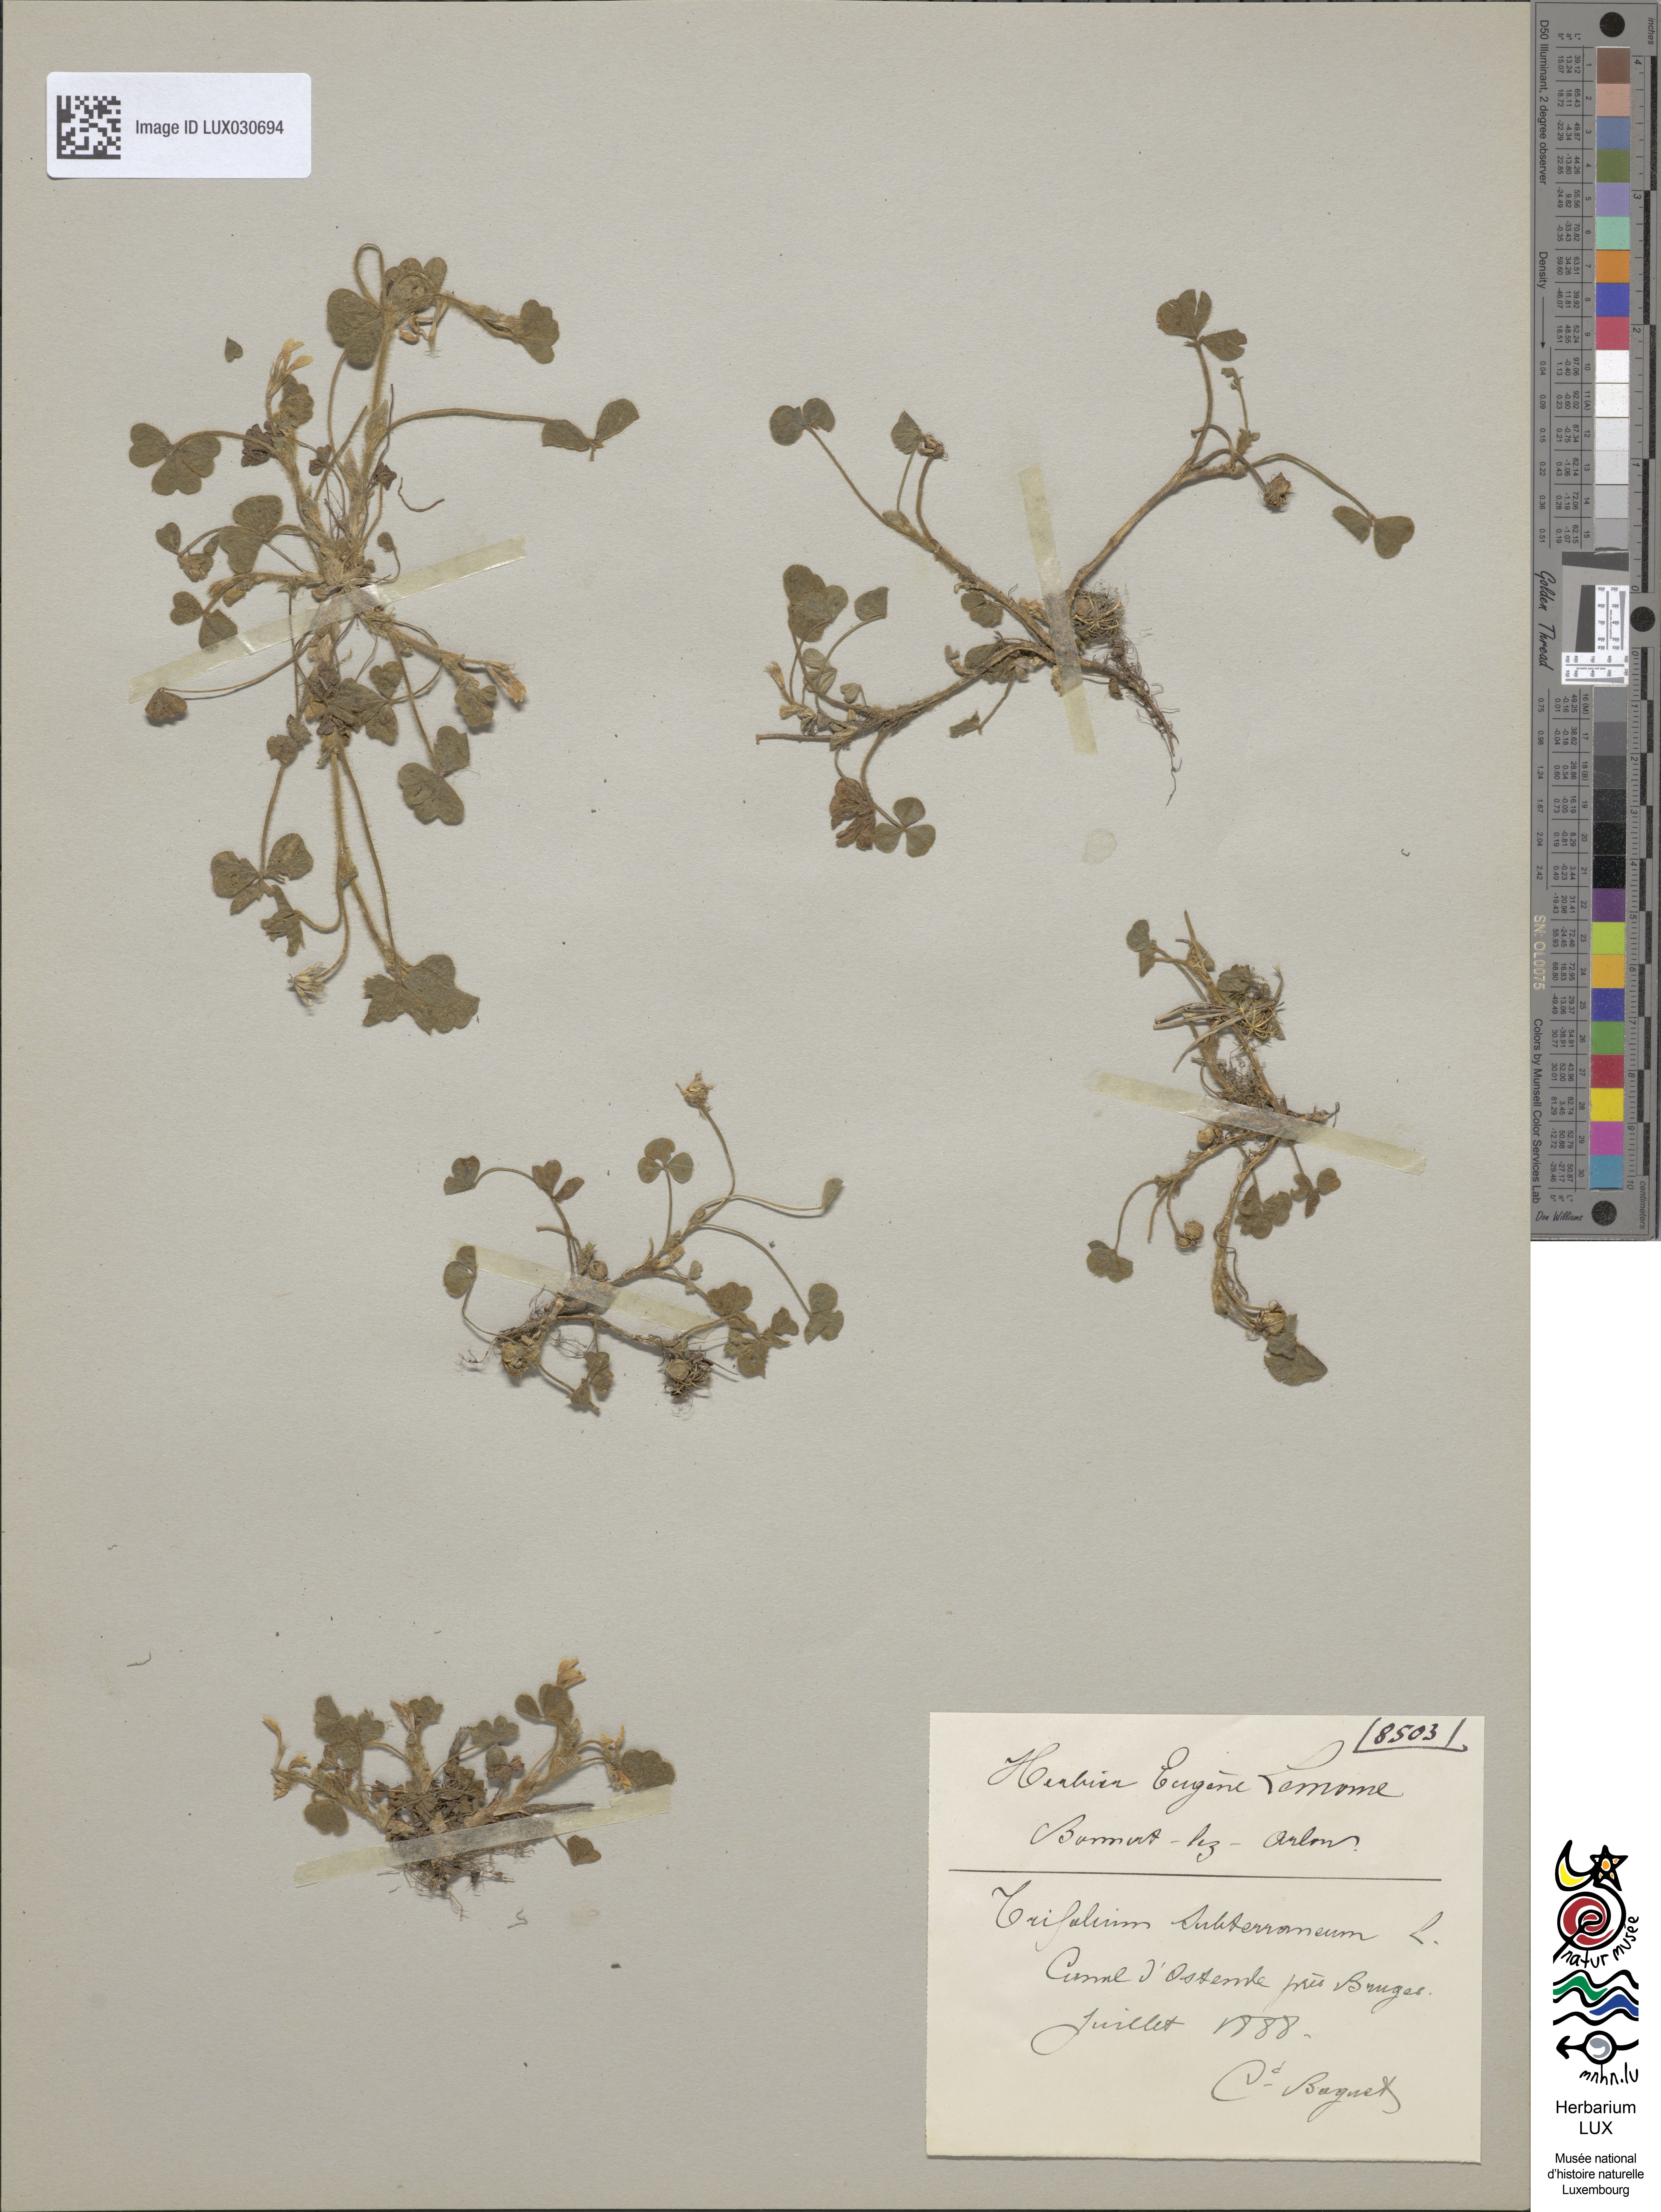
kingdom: Plantae
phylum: Tracheophyta
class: Magnoliopsida
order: Fabales
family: Fabaceae
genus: Trifolium
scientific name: Trifolium subterraneum
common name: Subterranean clover
